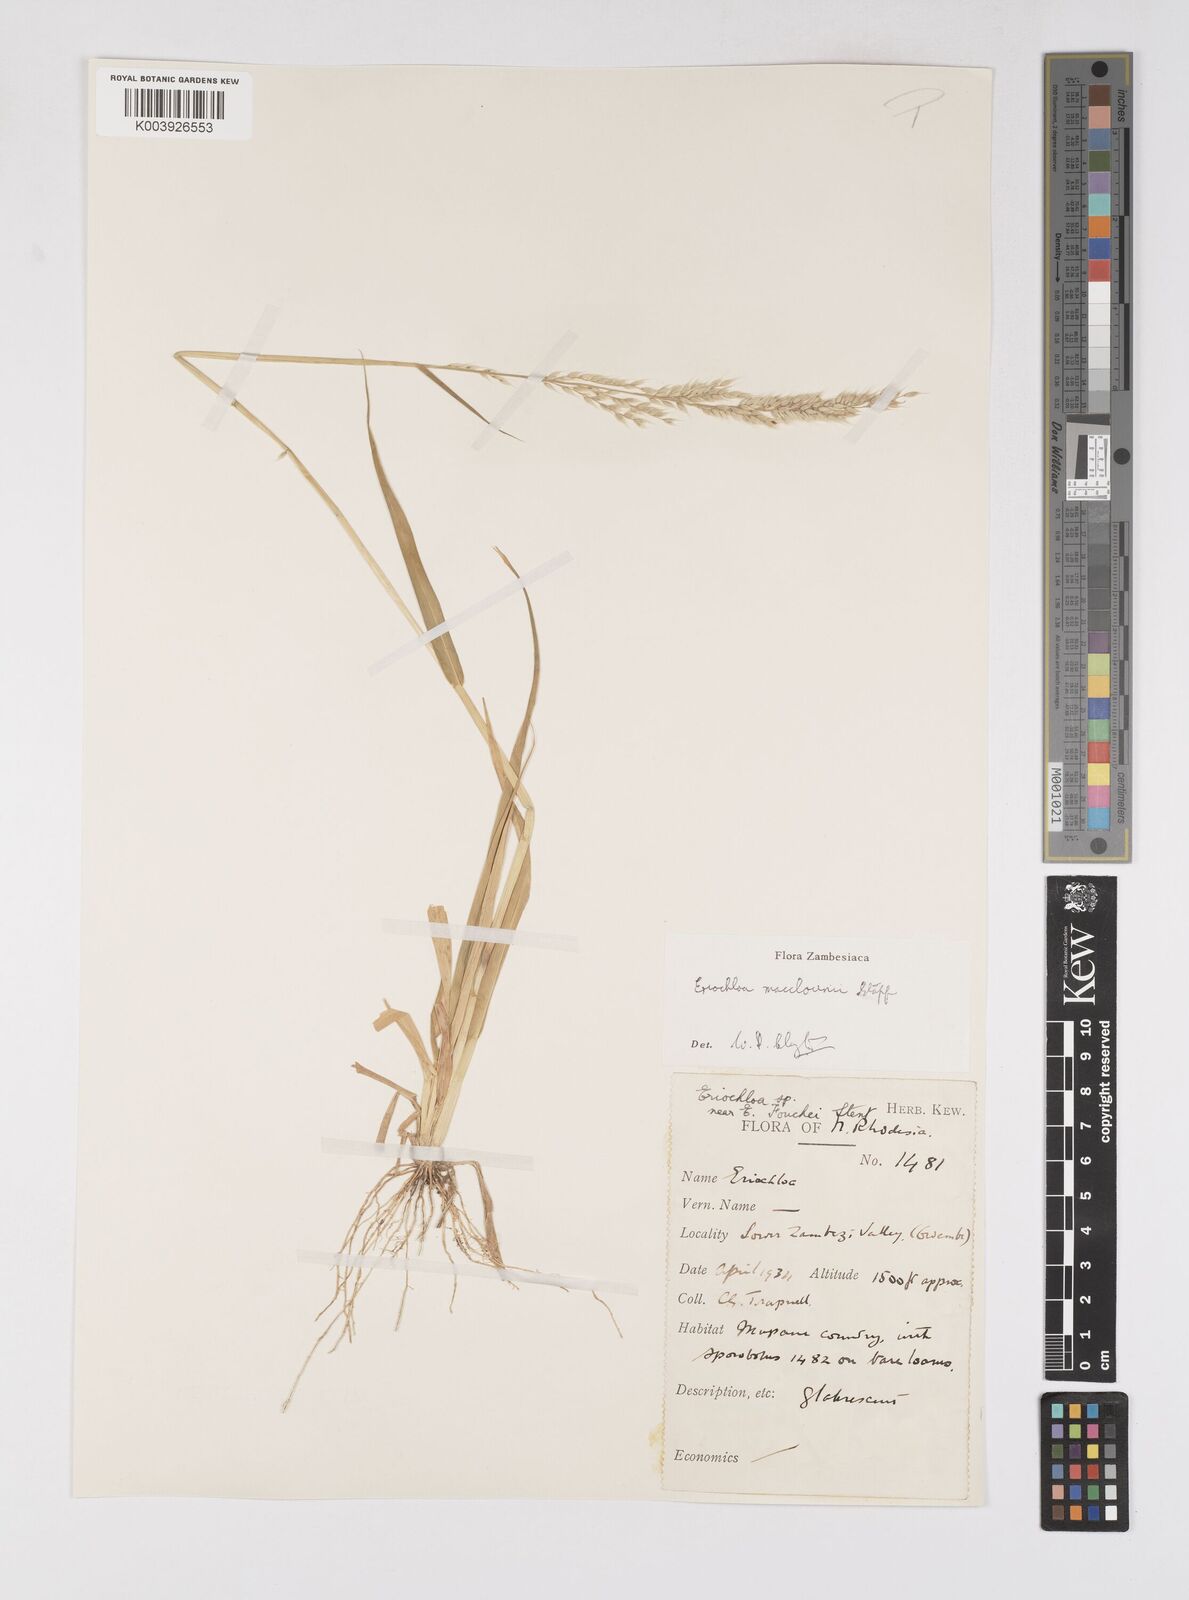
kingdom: Plantae
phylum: Tracheophyta
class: Liliopsida
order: Poales
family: Poaceae
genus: Eriochloa
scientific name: Eriochloa macclounii
